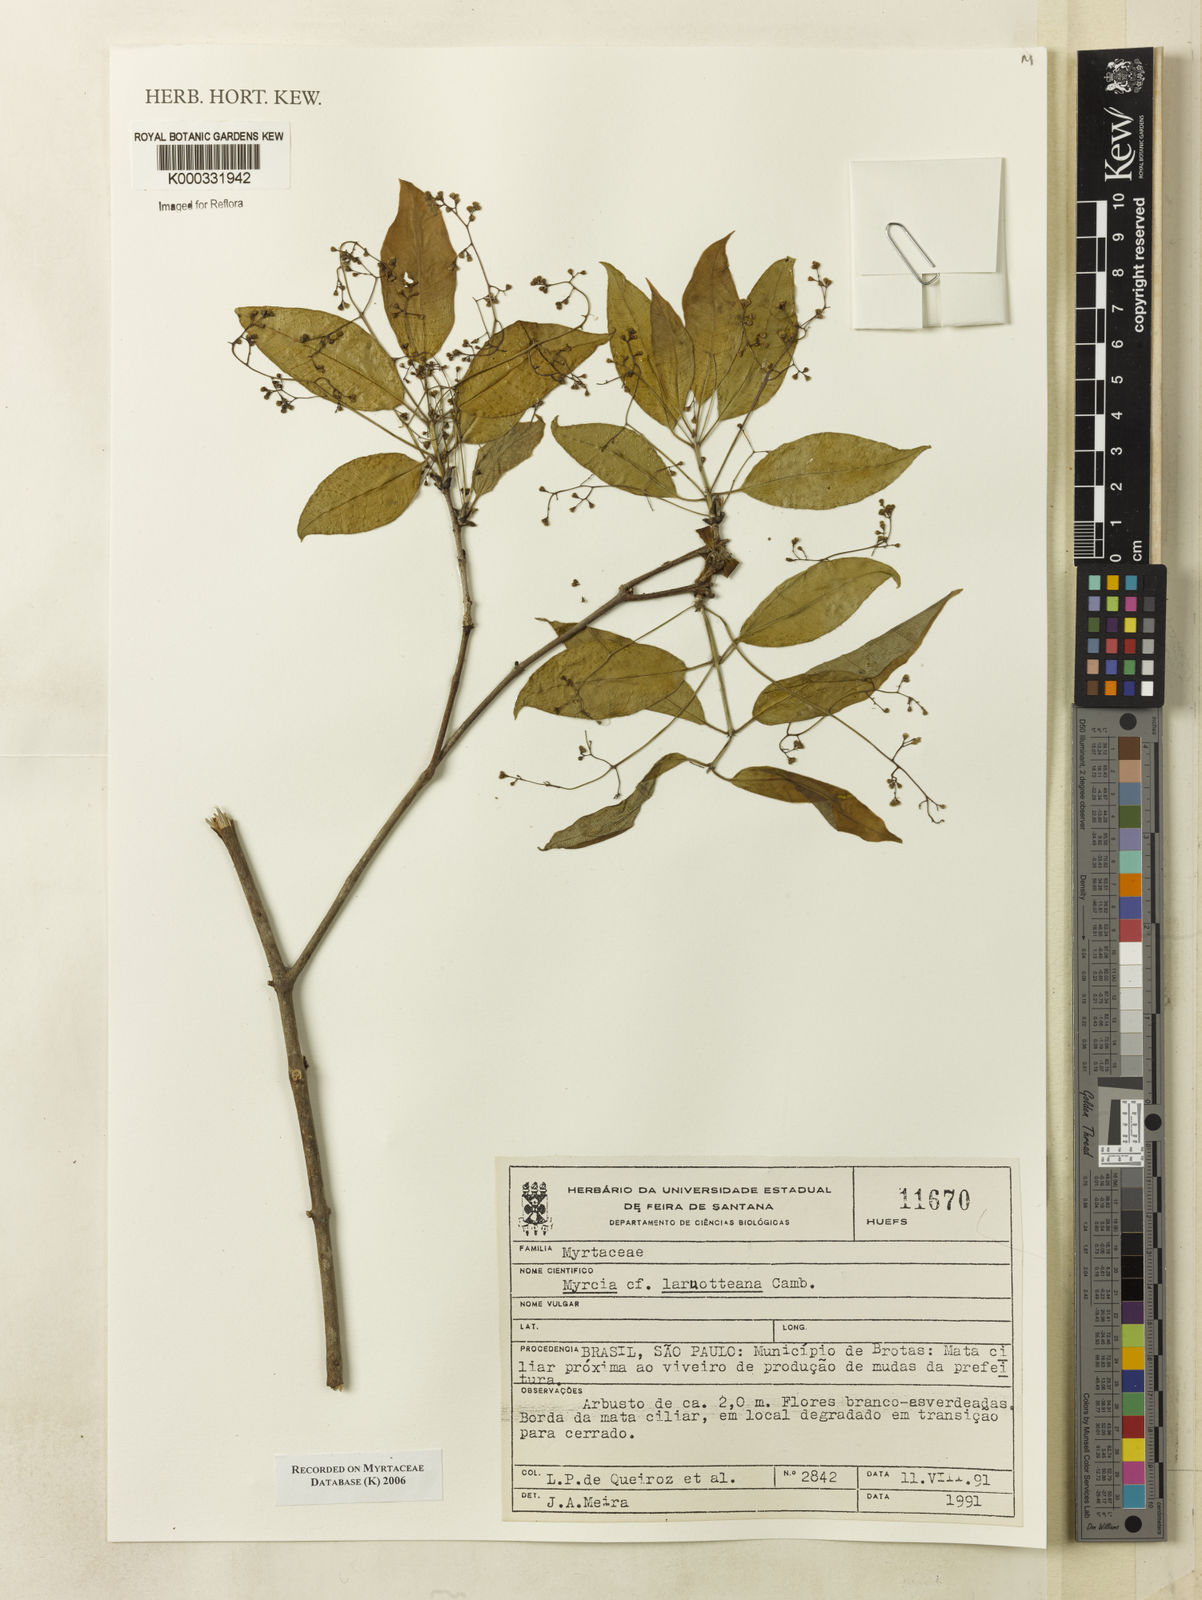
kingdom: Plantae
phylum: Tracheophyta
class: Magnoliopsida
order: Myrtales
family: Myrtaceae
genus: Myrcia
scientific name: Myrcia laruotteana
